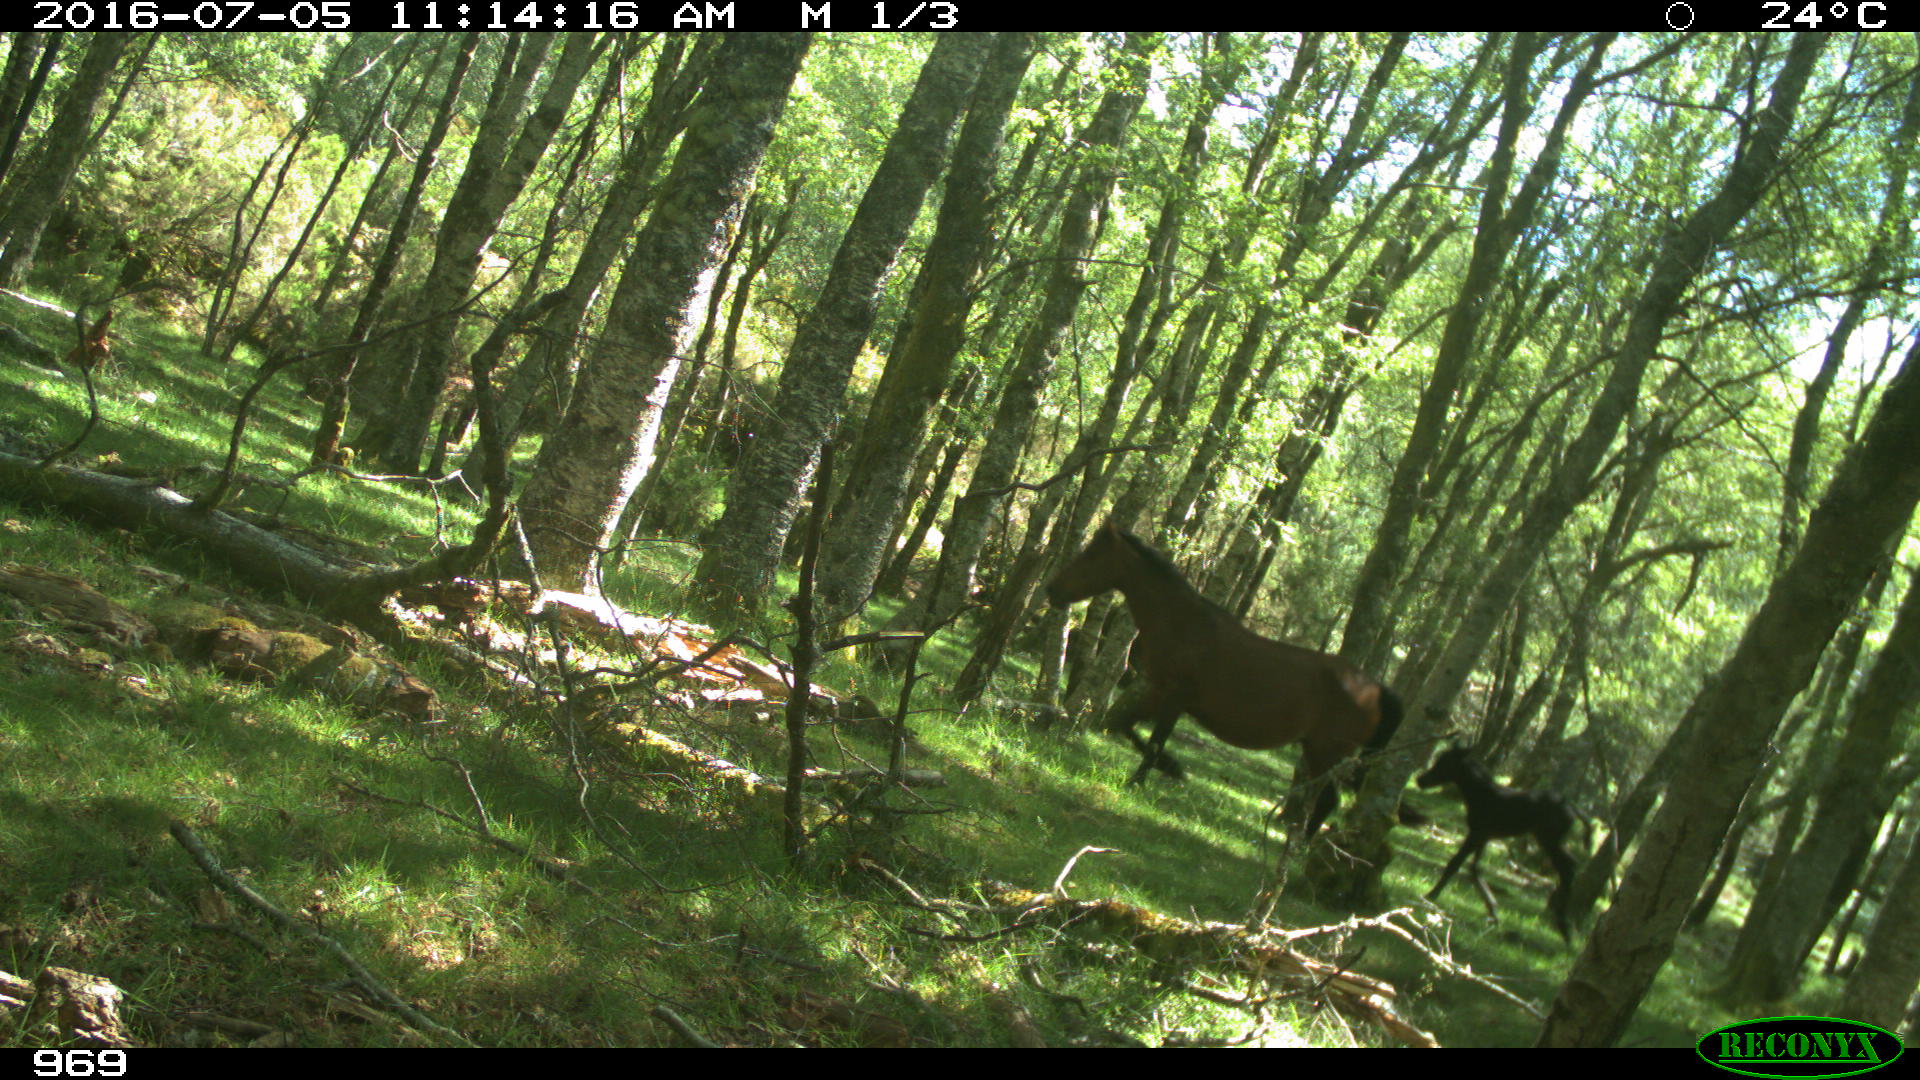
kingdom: Animalia
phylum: Chordata
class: Mammalia
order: Perissodactyla
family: Equidae
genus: Equus
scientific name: Equus caballus
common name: Horse
